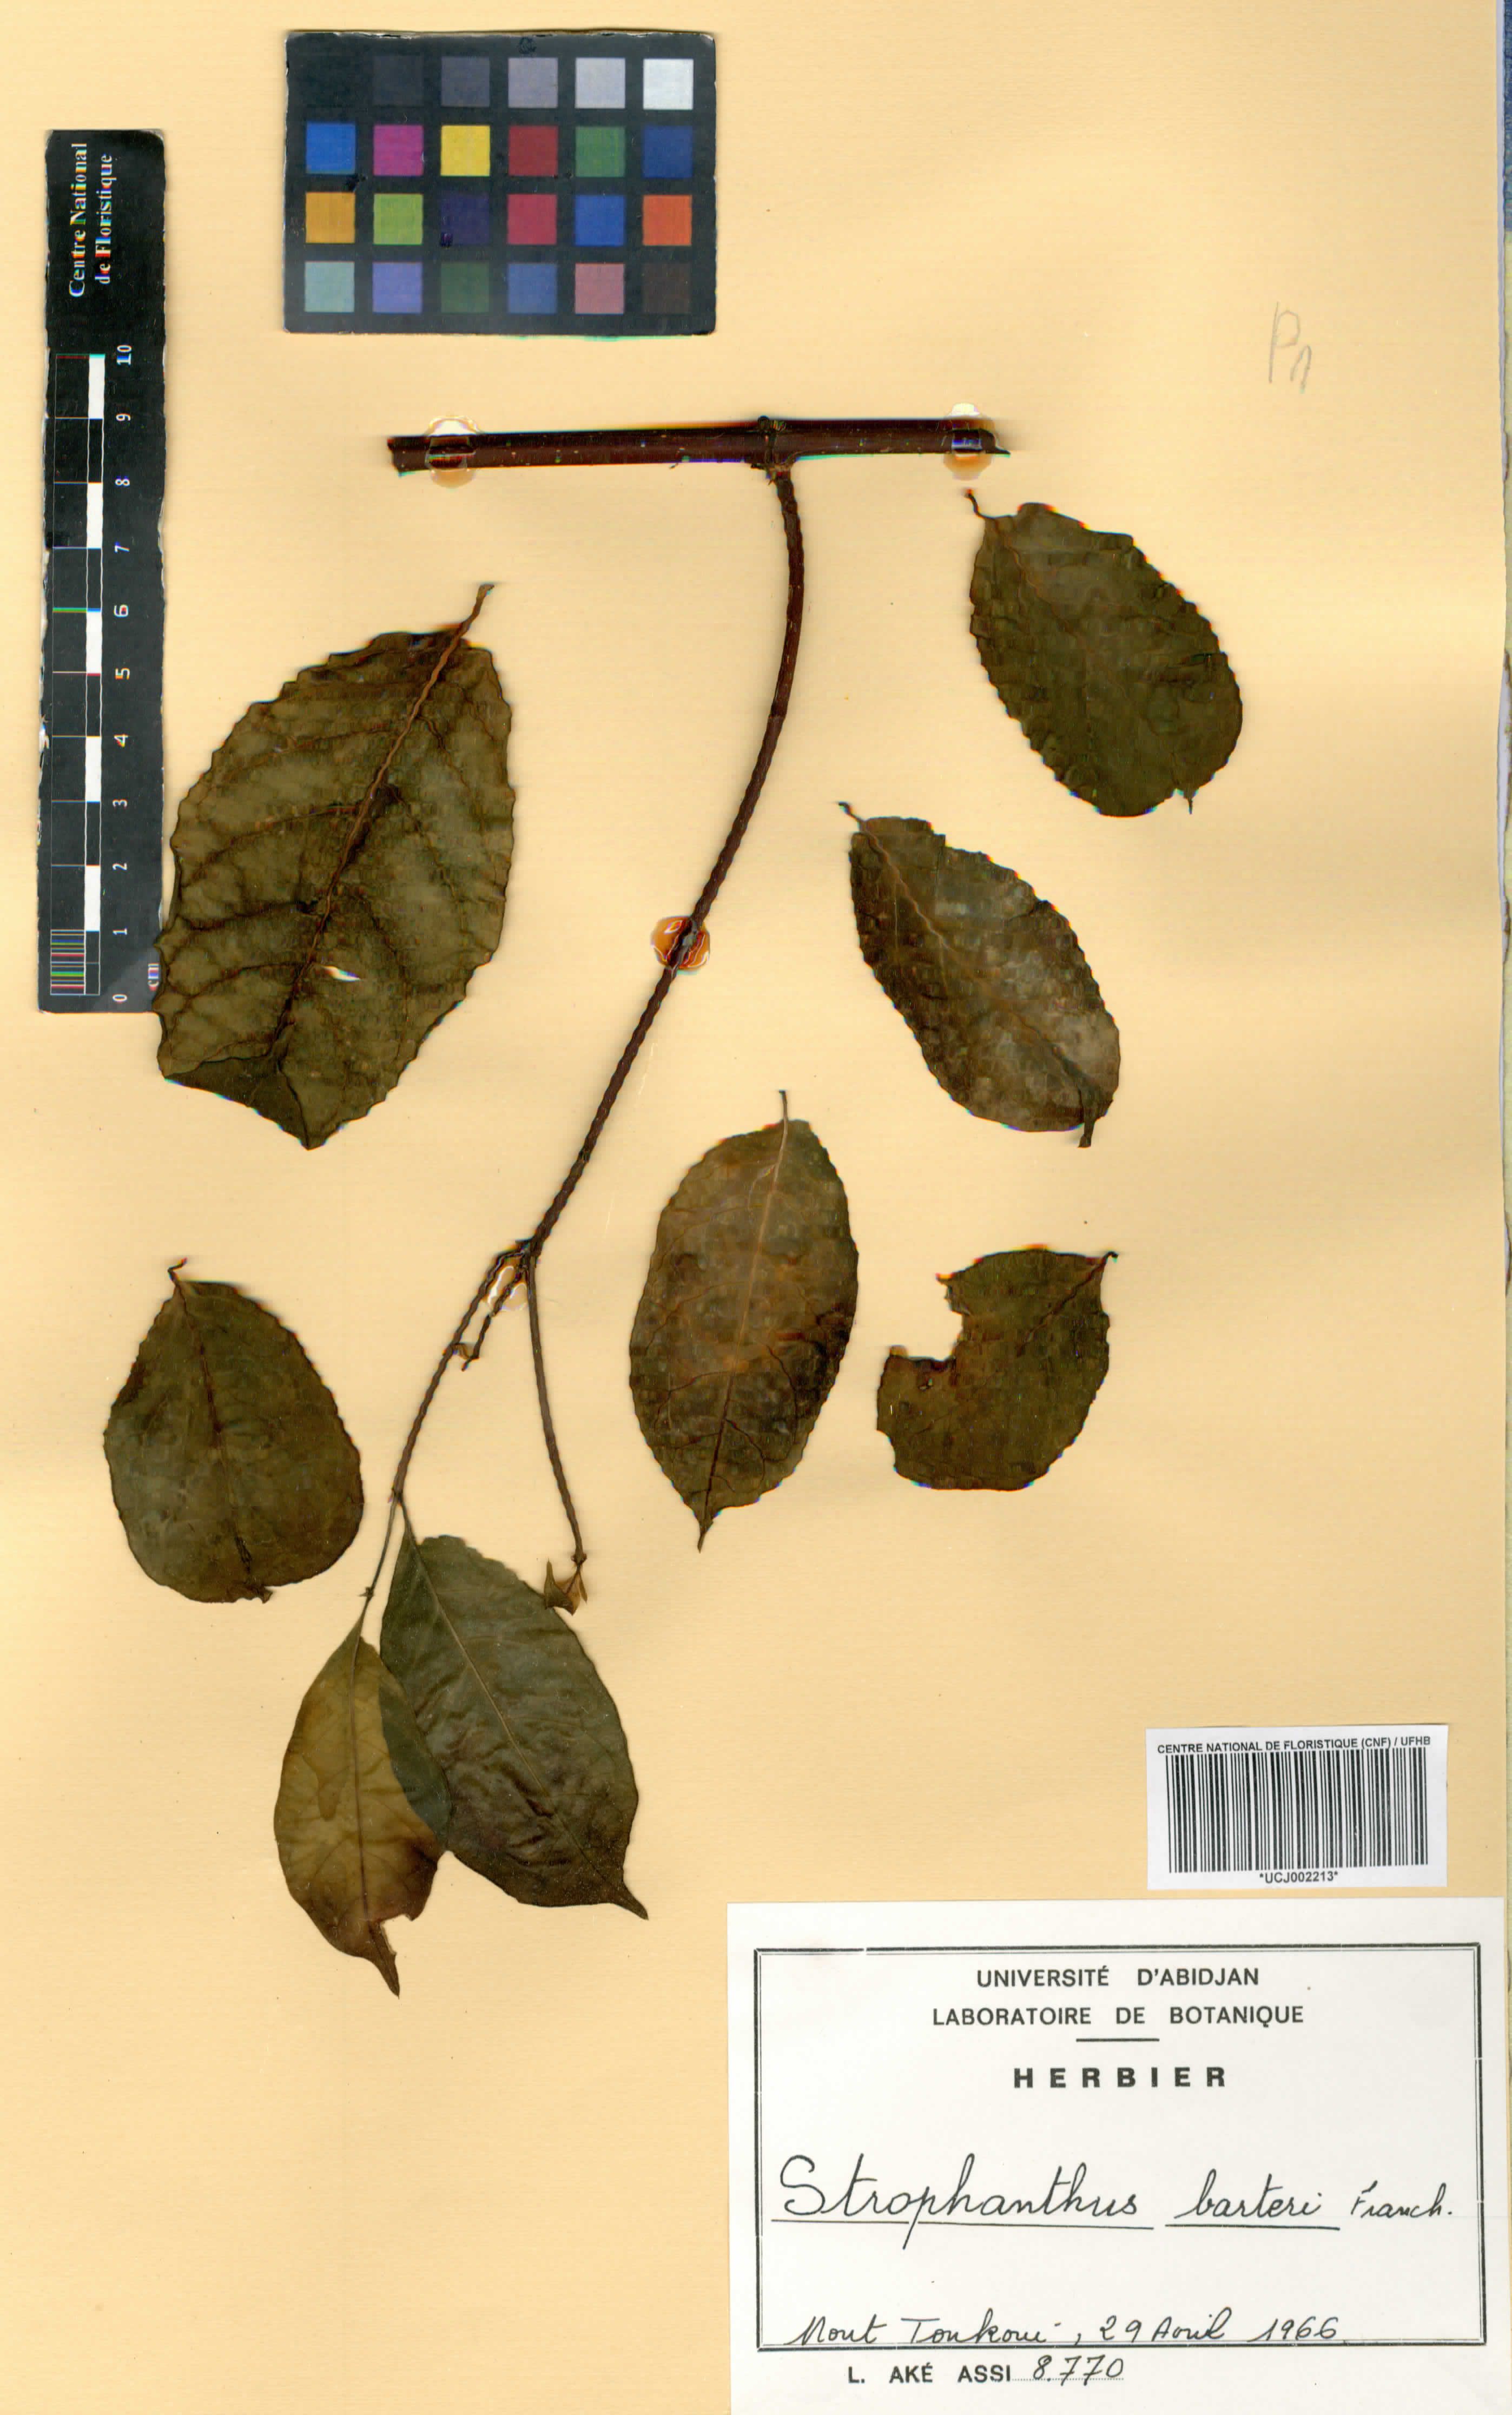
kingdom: Plantae
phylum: Tracheophyta
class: Magnoliopsida
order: Gentianales
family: Apocynaceae
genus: Strophanthus
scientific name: Strophanthus barteri
